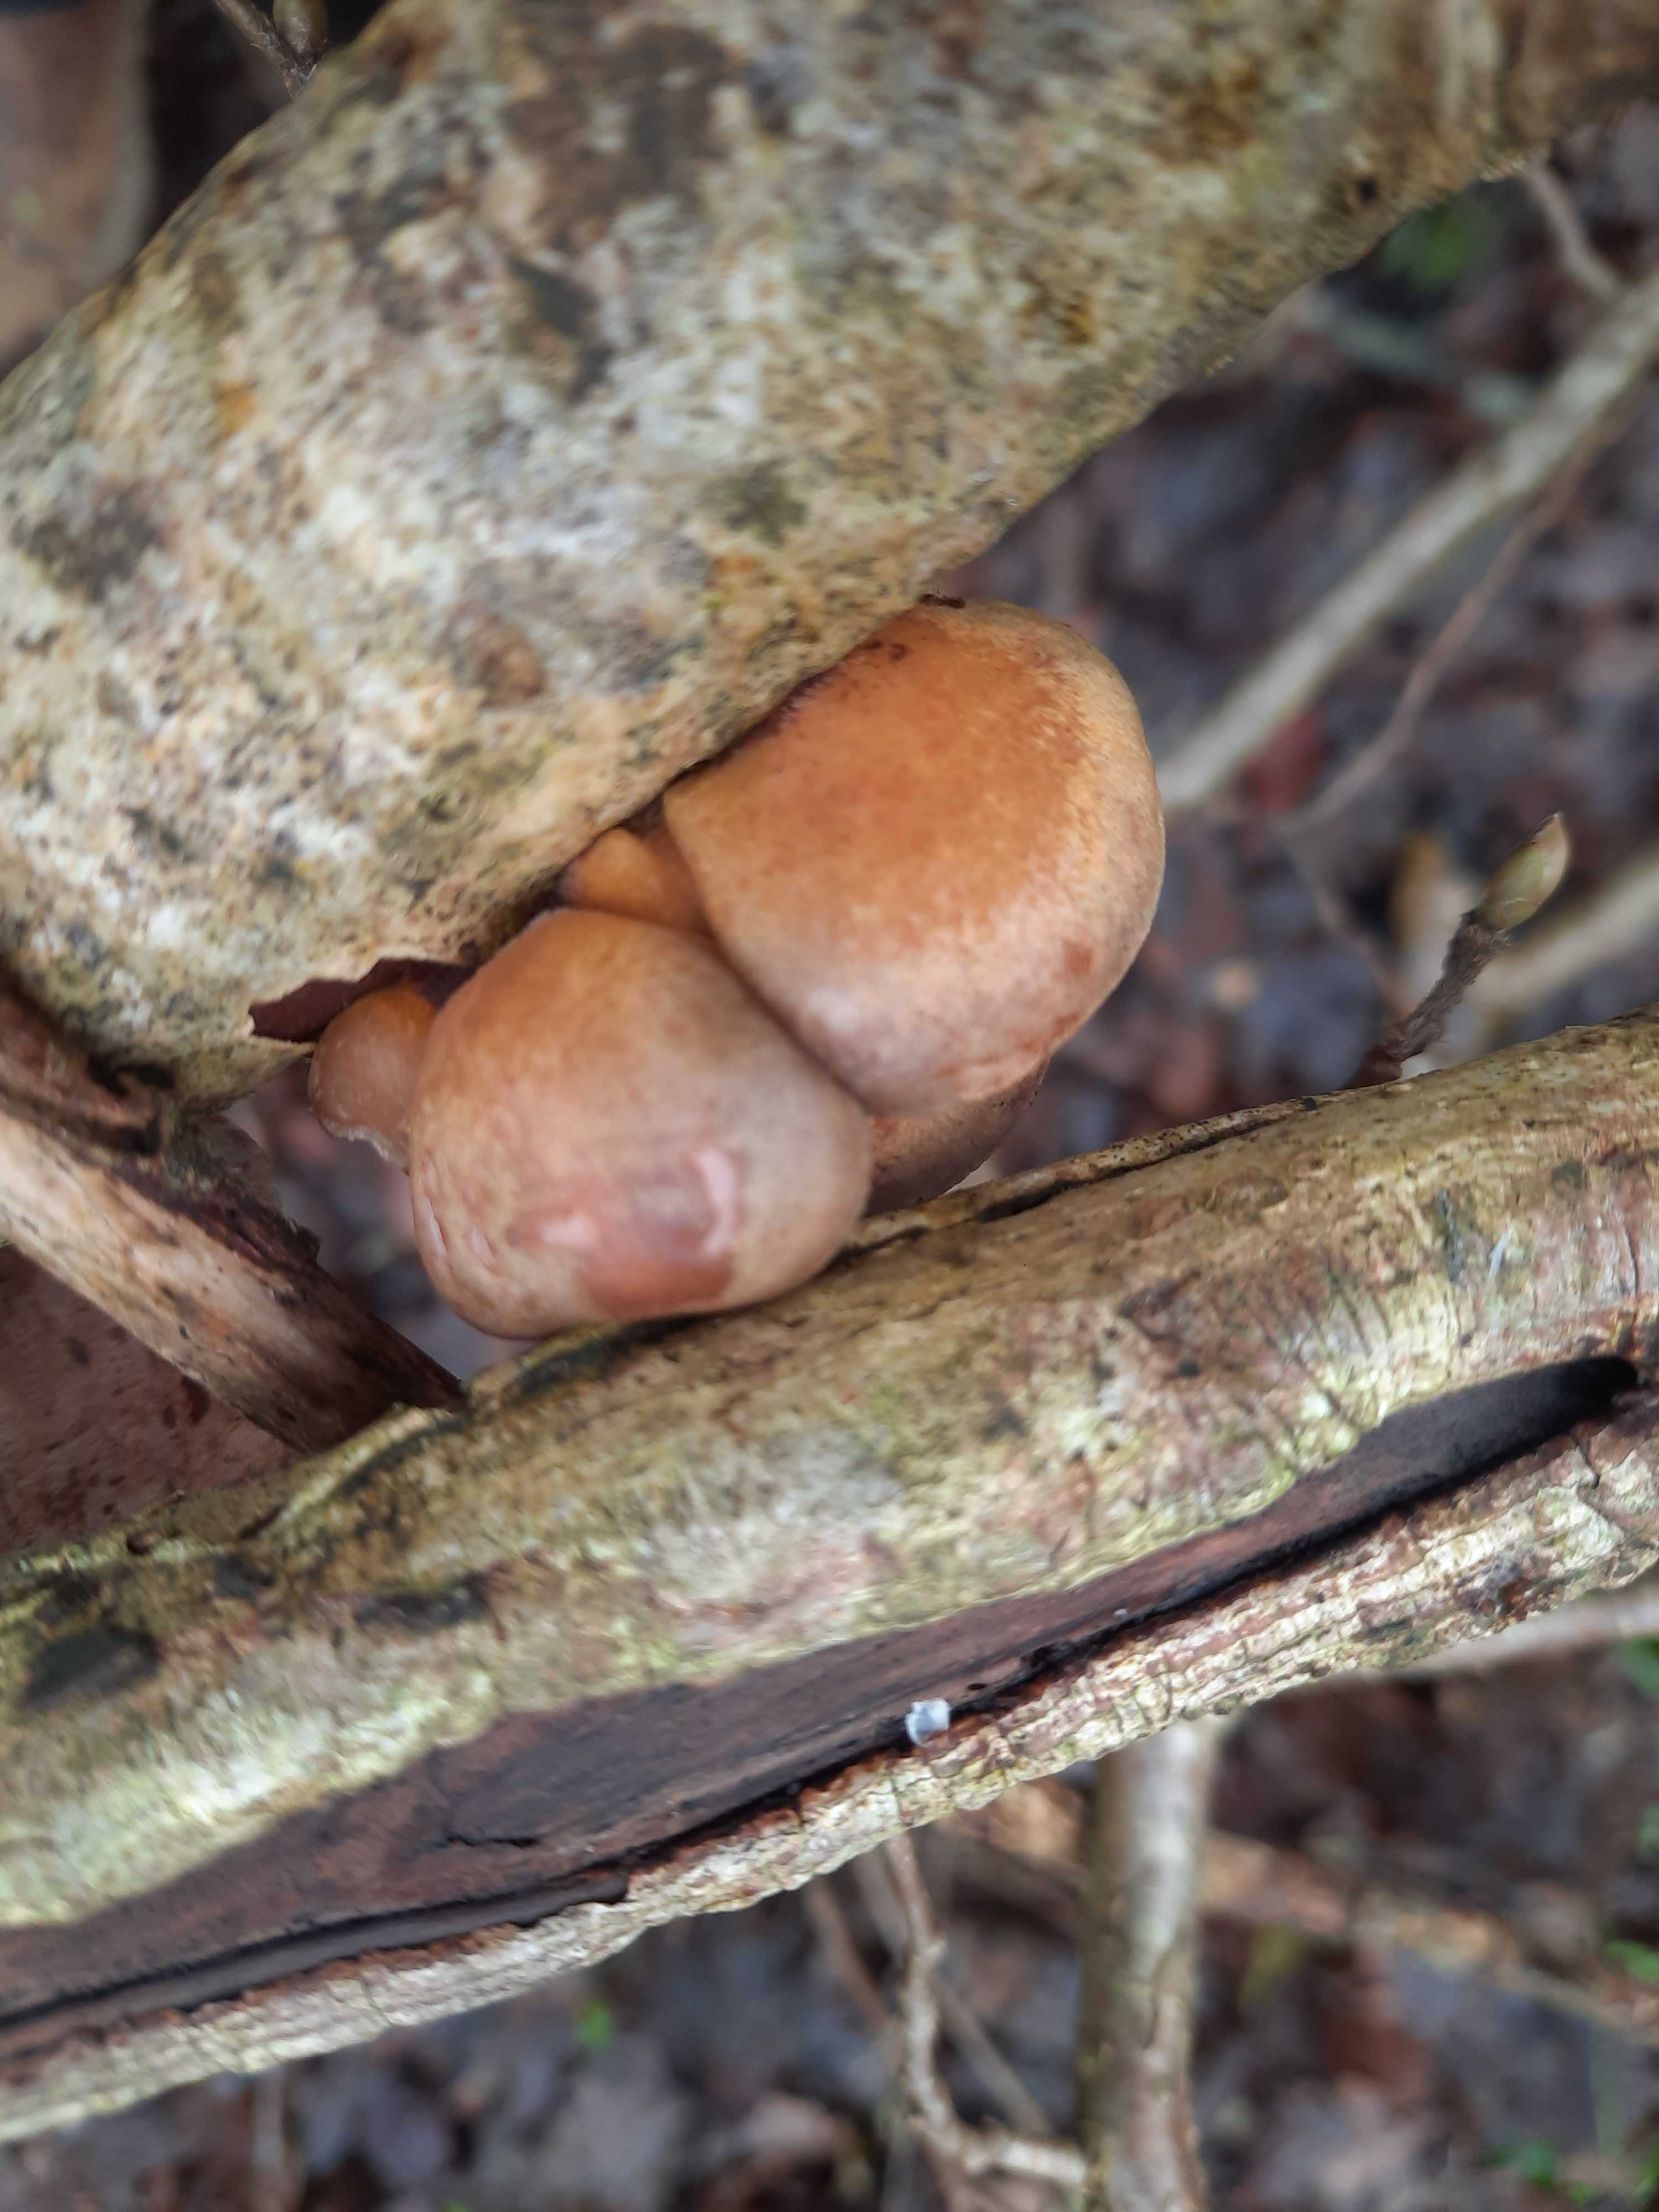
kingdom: Fungi
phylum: Basidiomycota
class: Agaricomycetes
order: Agaricales
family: Sarcomyxaceae
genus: Sarcomyxa
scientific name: Sarcomyxa serotina
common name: gummihat
